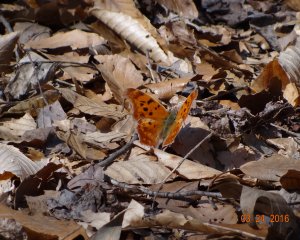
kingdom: Animalia
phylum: Arthropoda
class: Insecta
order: Lepidoptera
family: Nymphalidae
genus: Polygonia
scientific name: Polygonia interrogationis
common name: Question Mark
